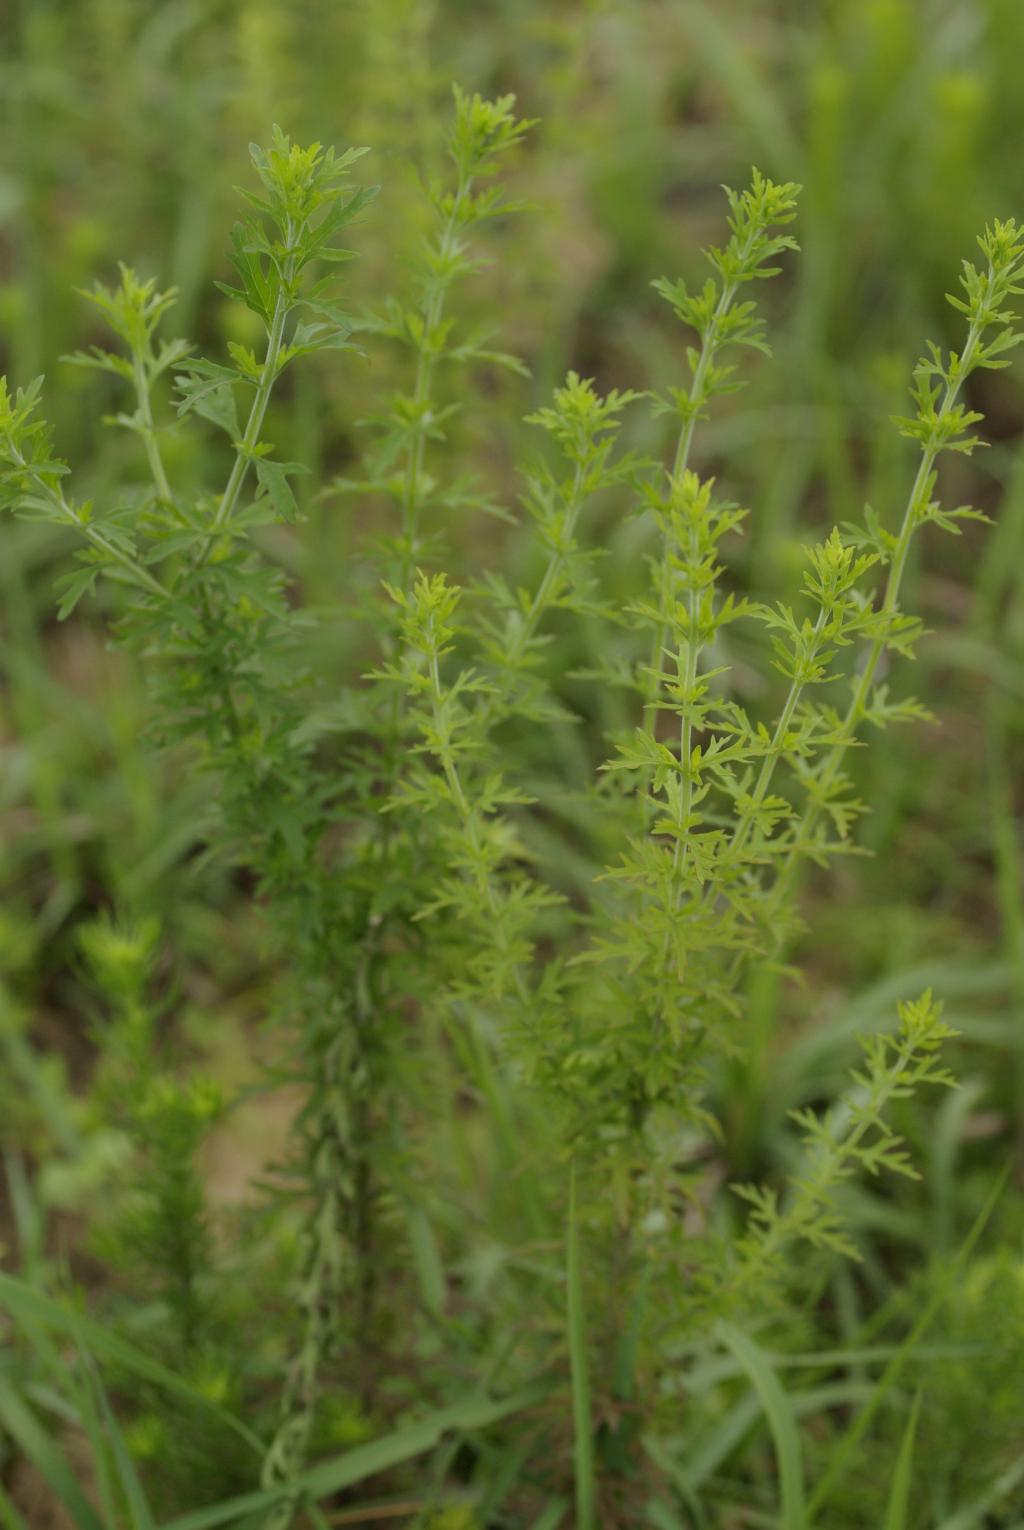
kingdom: Plantae
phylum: Tracheophyta
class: Magnoliopsida
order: Lamiales
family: Orobanchaceae
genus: Siphonostegia
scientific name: Siphonostegia chinensis
